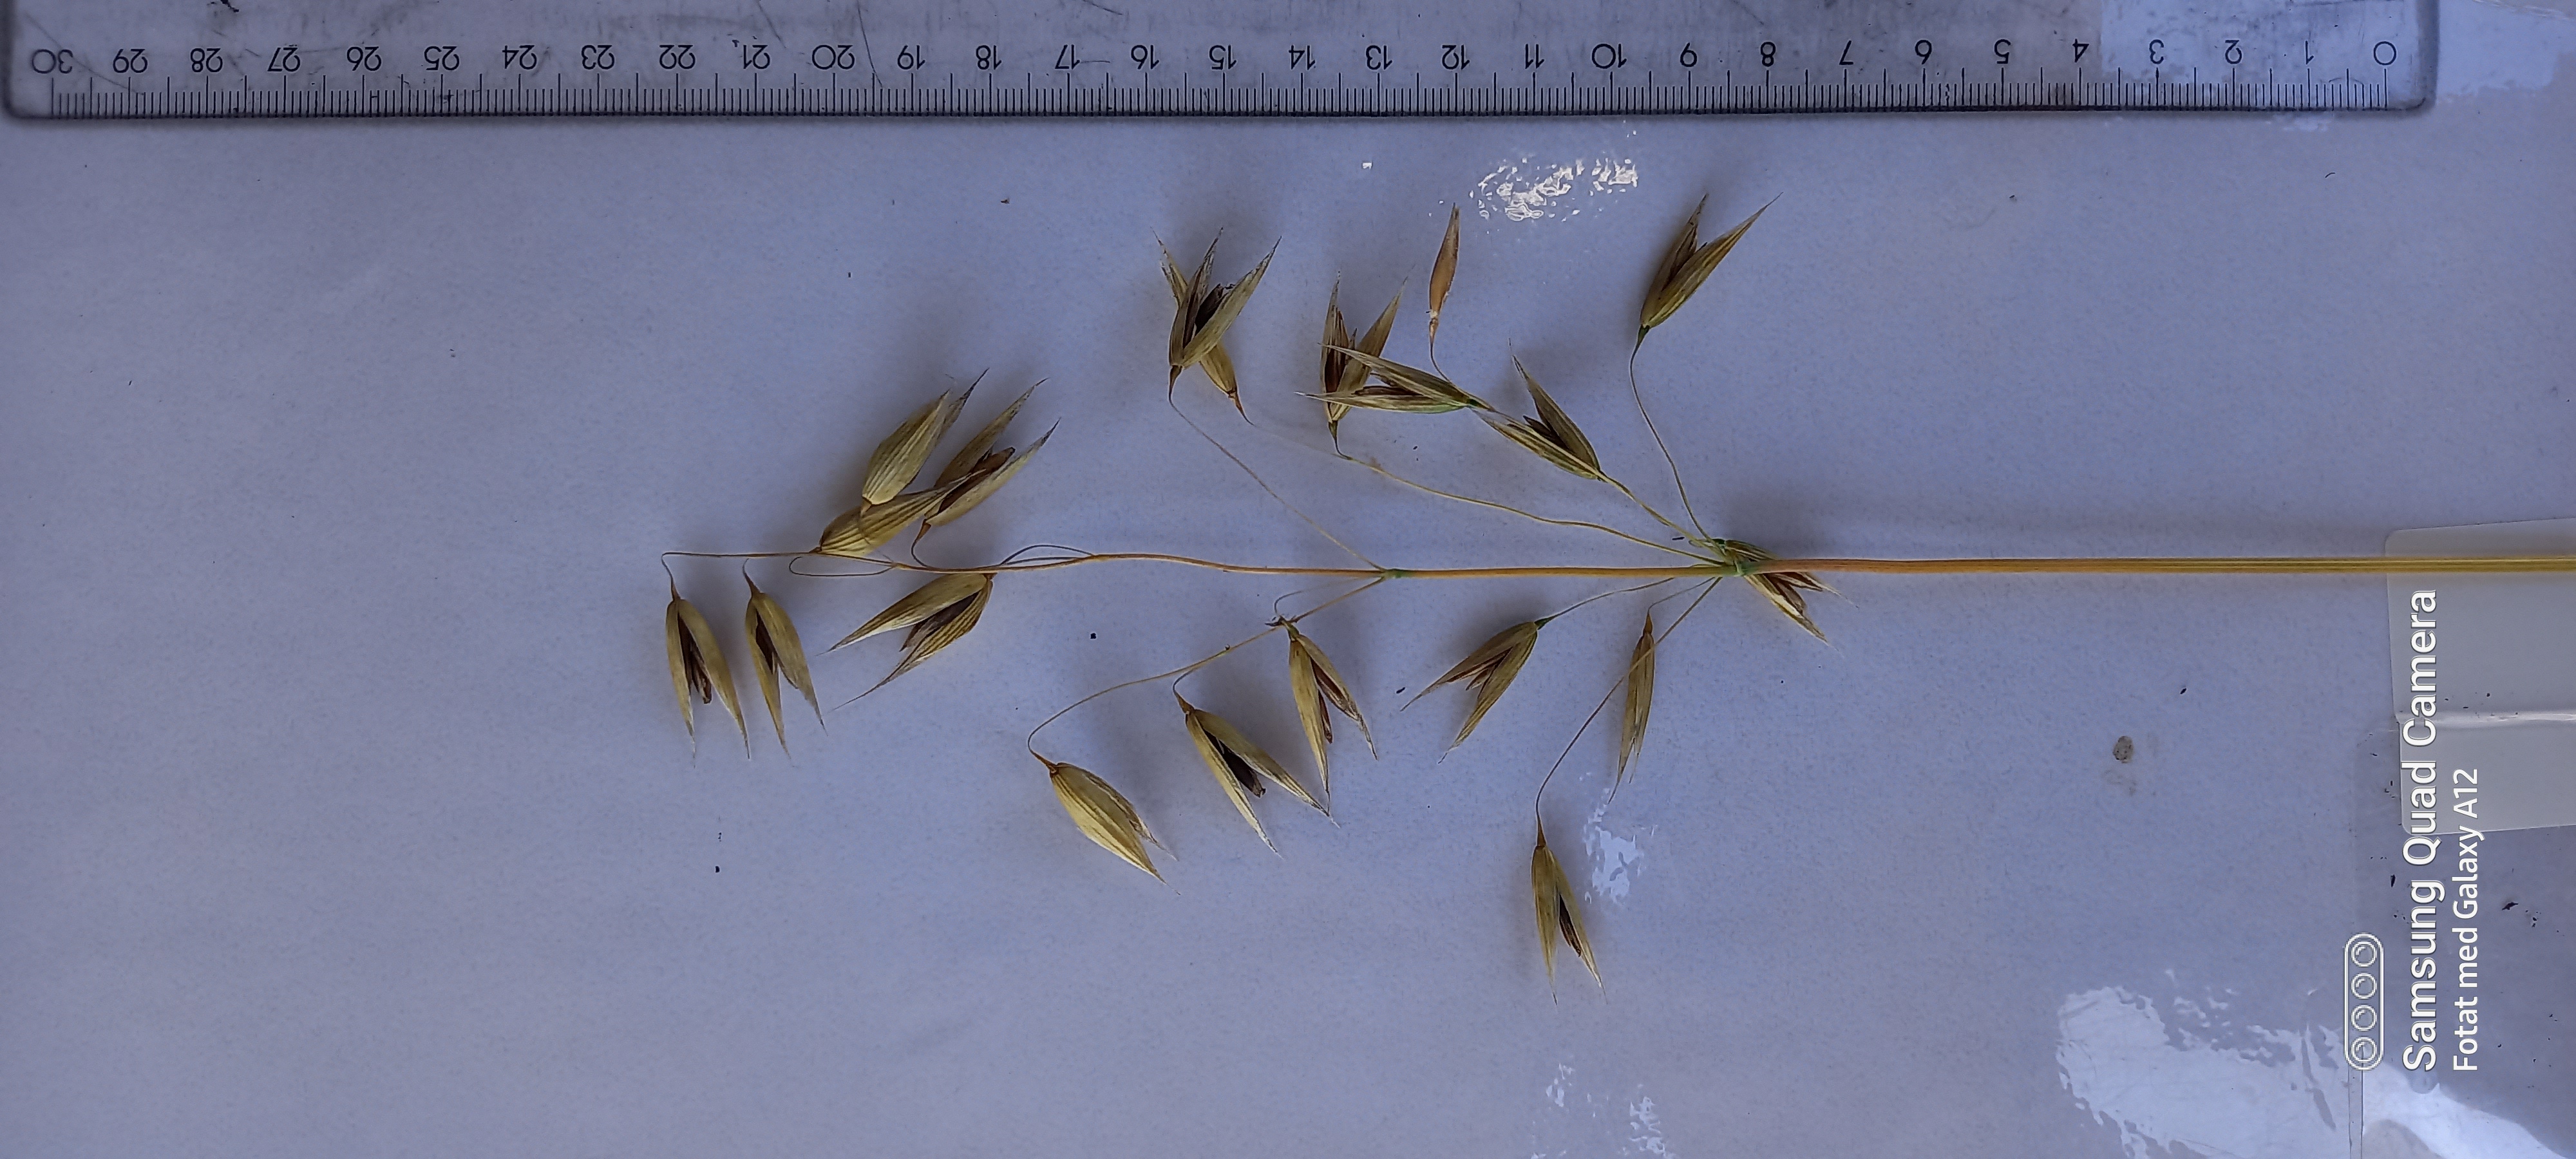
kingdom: Plantae
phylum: Tracheophyta
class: Liliopsida
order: Poales
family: Poaceae
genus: Avena
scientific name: Avena sativa
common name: Oat
